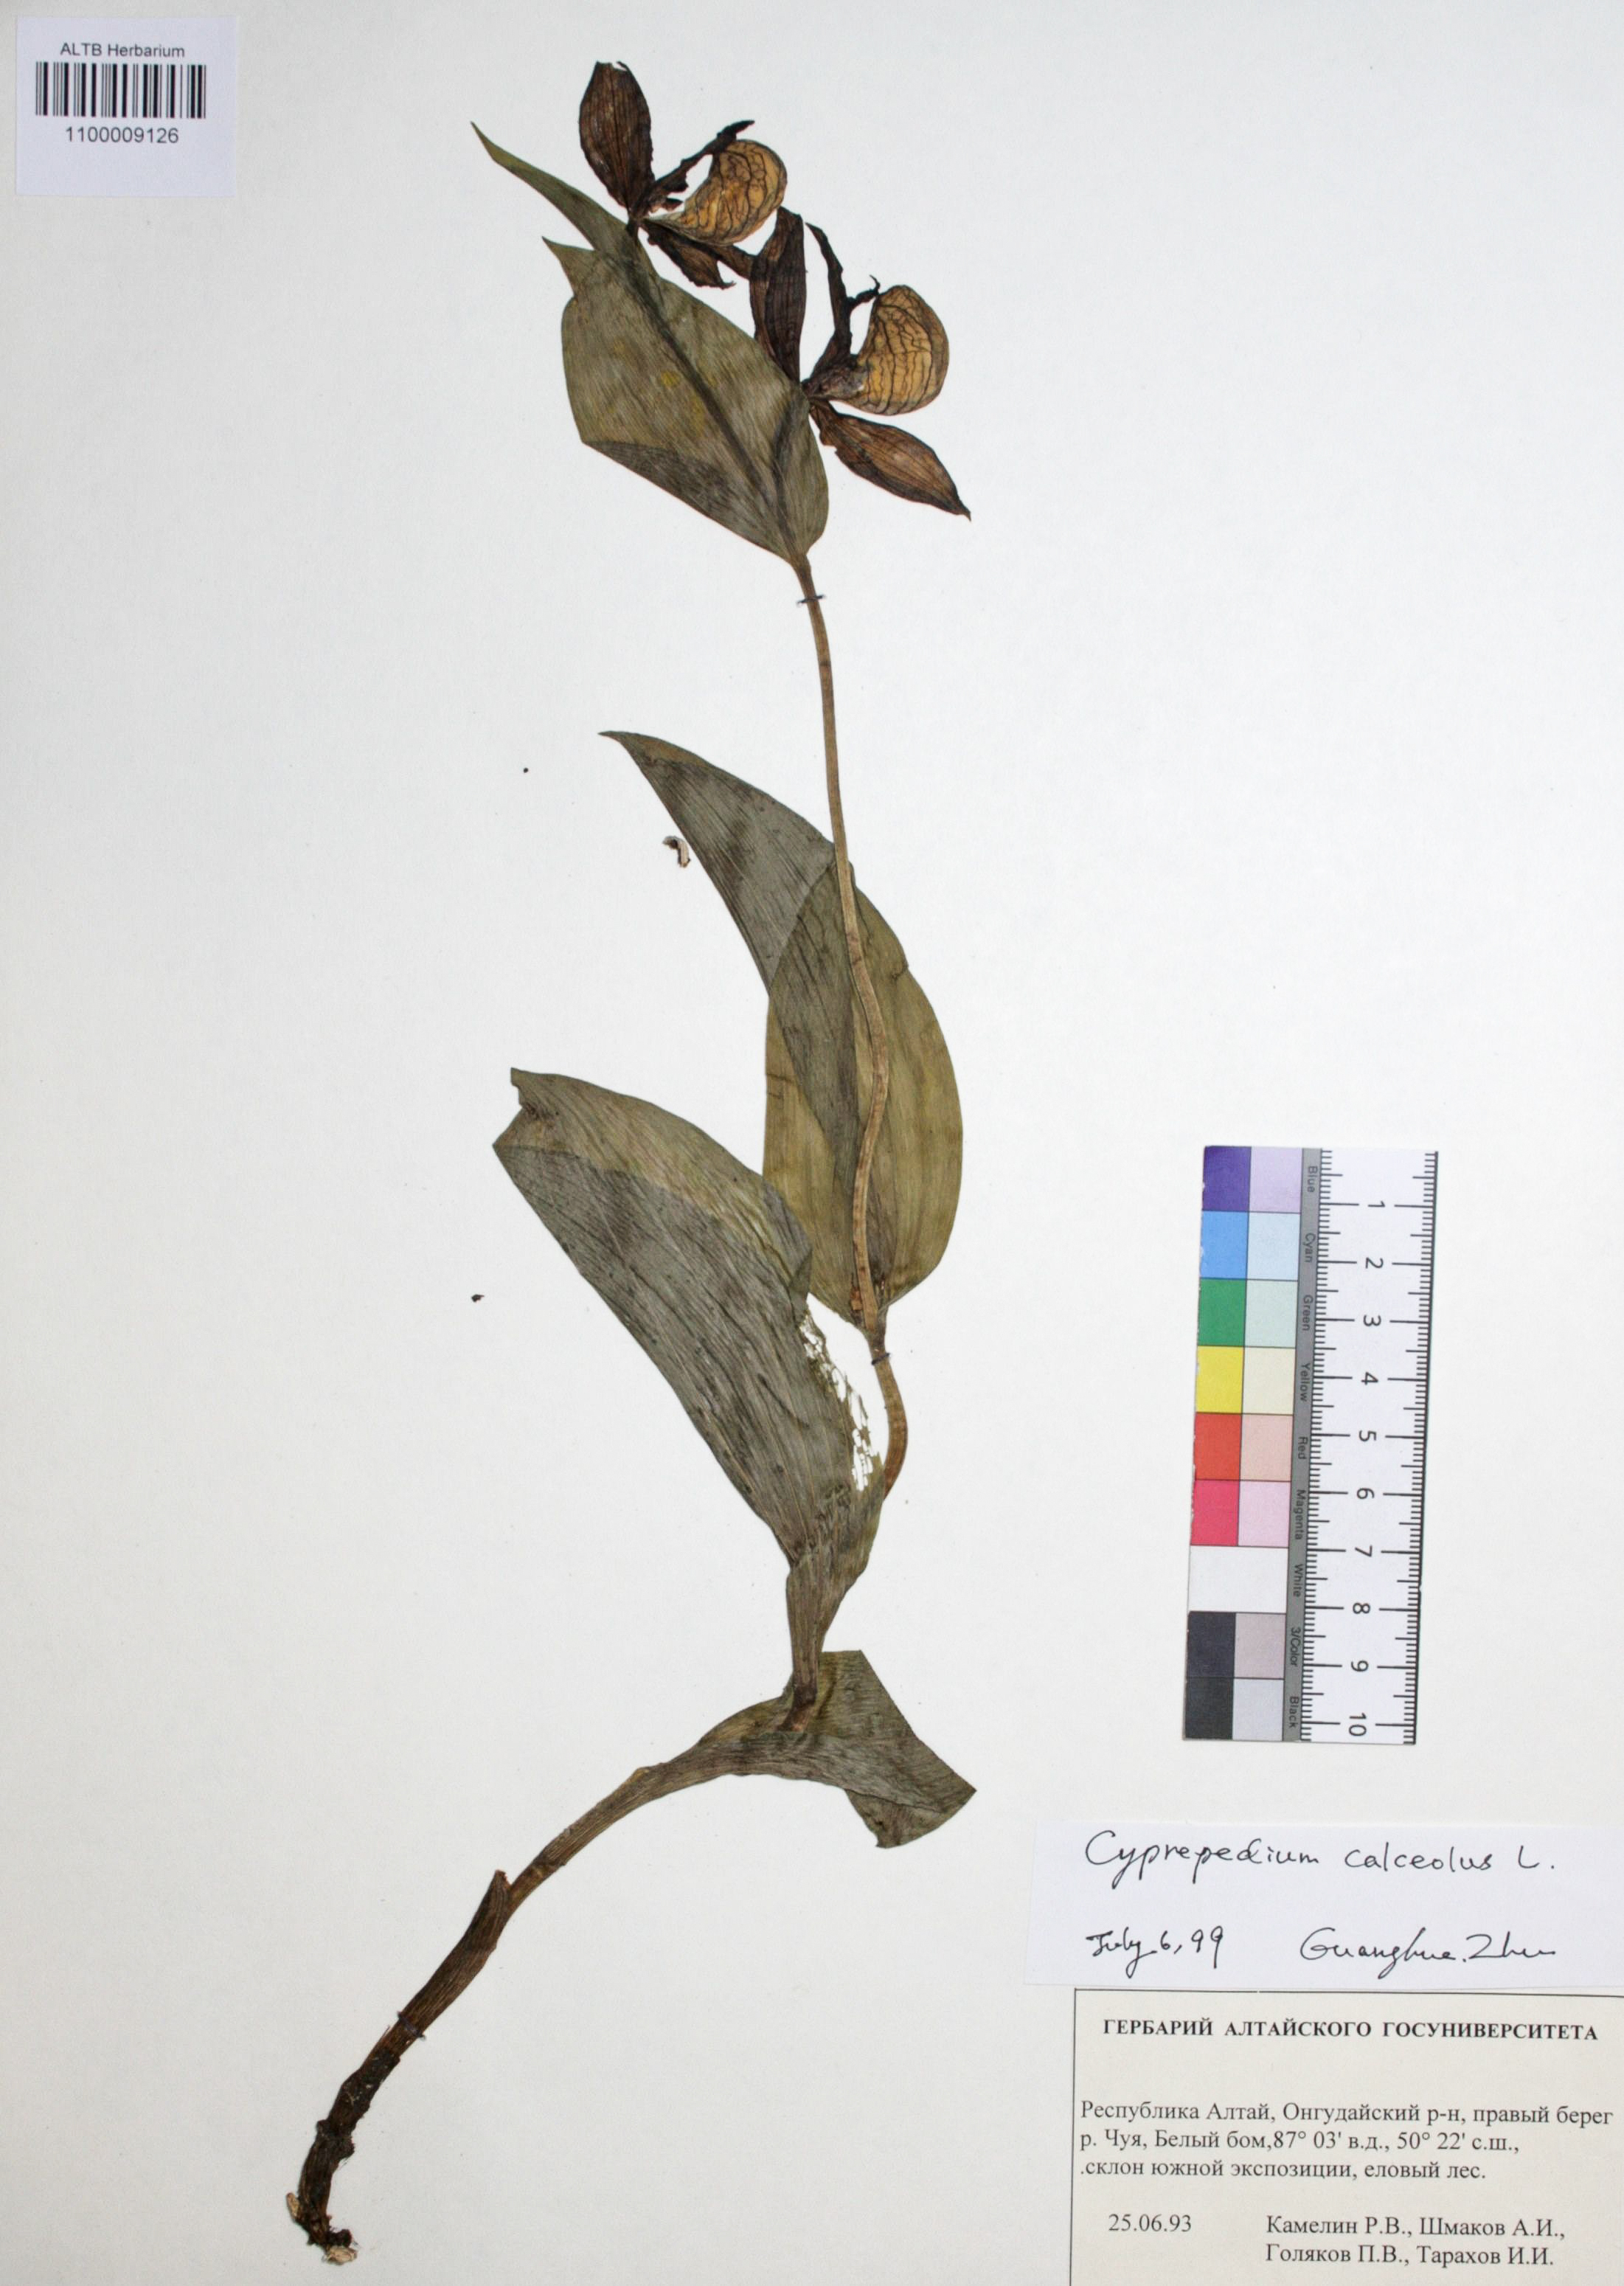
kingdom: Plantae
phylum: Tracheophyta
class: Liliopsida
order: Asparagales
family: Orchidaceae
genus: Cypripedium
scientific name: Cypripedium calceolus
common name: Lady's-slipper
